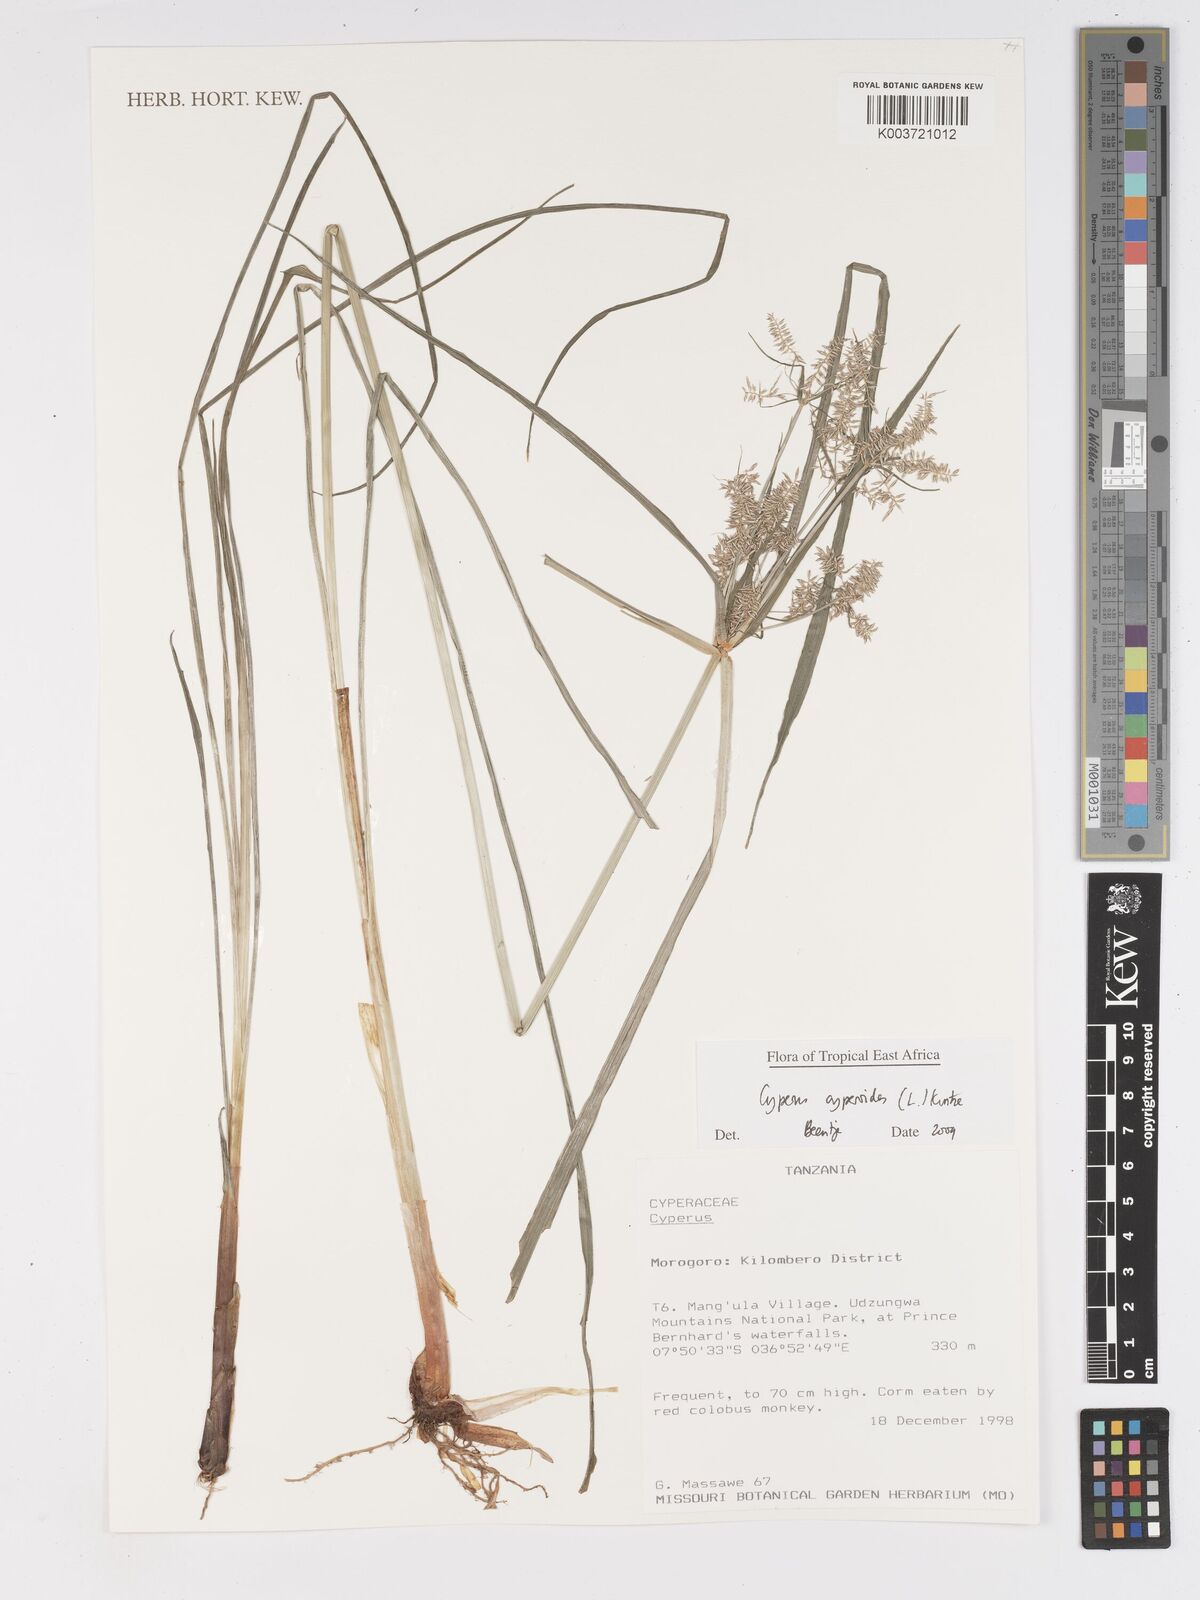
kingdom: Plantae
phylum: Tracheophyta
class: Liliopsida
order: Poales
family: Cyperaceae
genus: Cyperus
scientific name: Cyperus cyperoides
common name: Pacific island flat sedge
